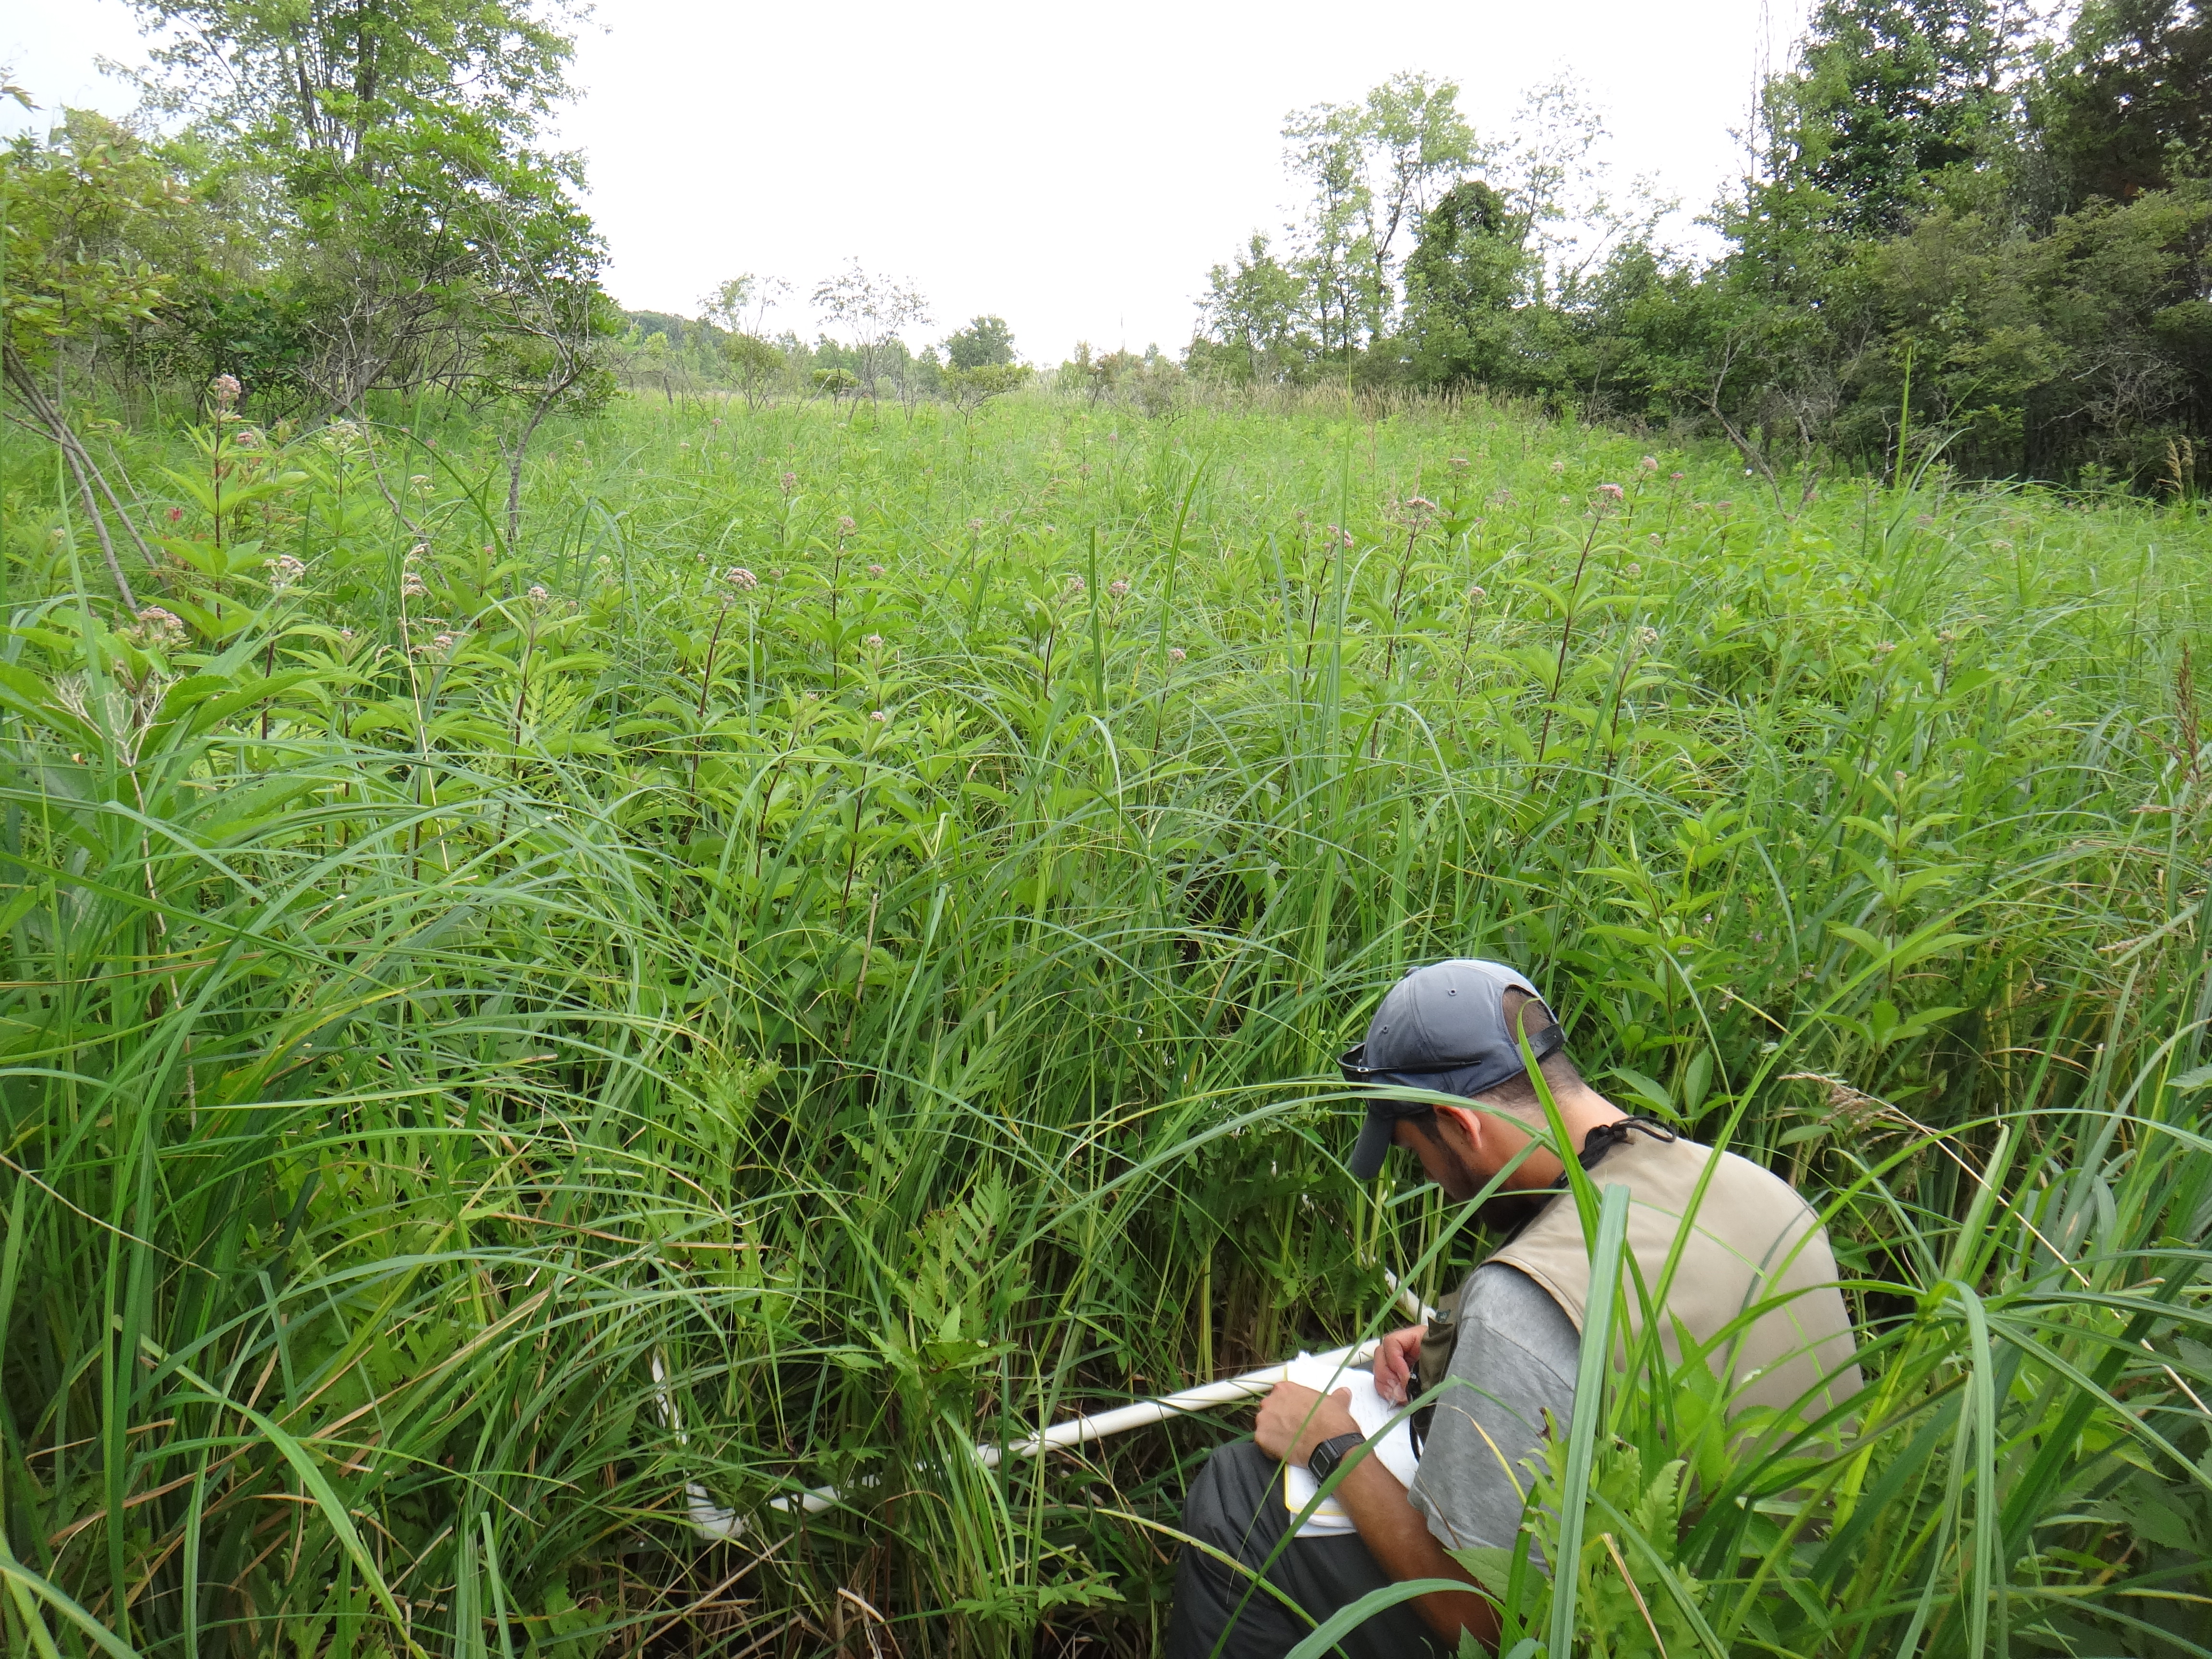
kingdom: Plantae
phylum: Tracheophyta
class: Liliopsida
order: Poales
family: Cyperaceae
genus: Carex
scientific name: Carex lacustris
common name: Common lake sedge
